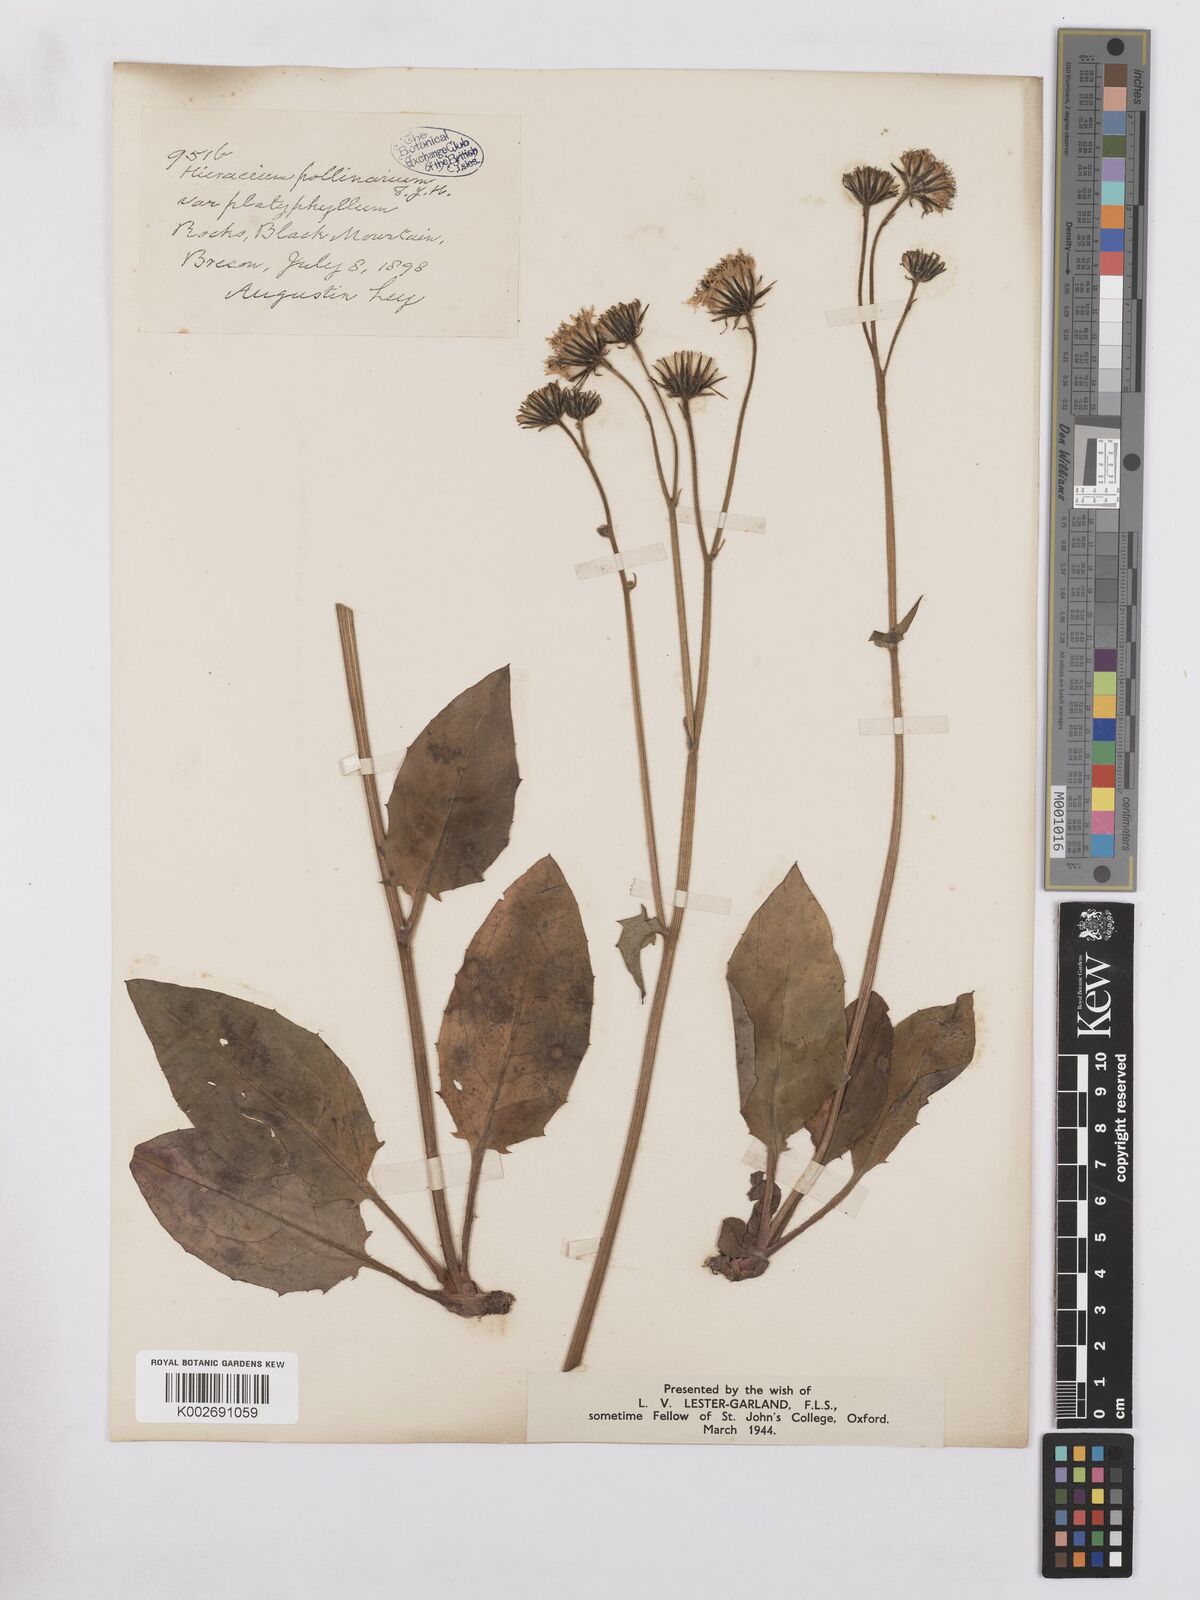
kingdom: Plantae
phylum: Tracheophyta
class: Magnoliopsida
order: Asterales
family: Asteraceae
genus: Hieracium
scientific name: Hieracium leyanum
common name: Fat-leaved hawkweed
